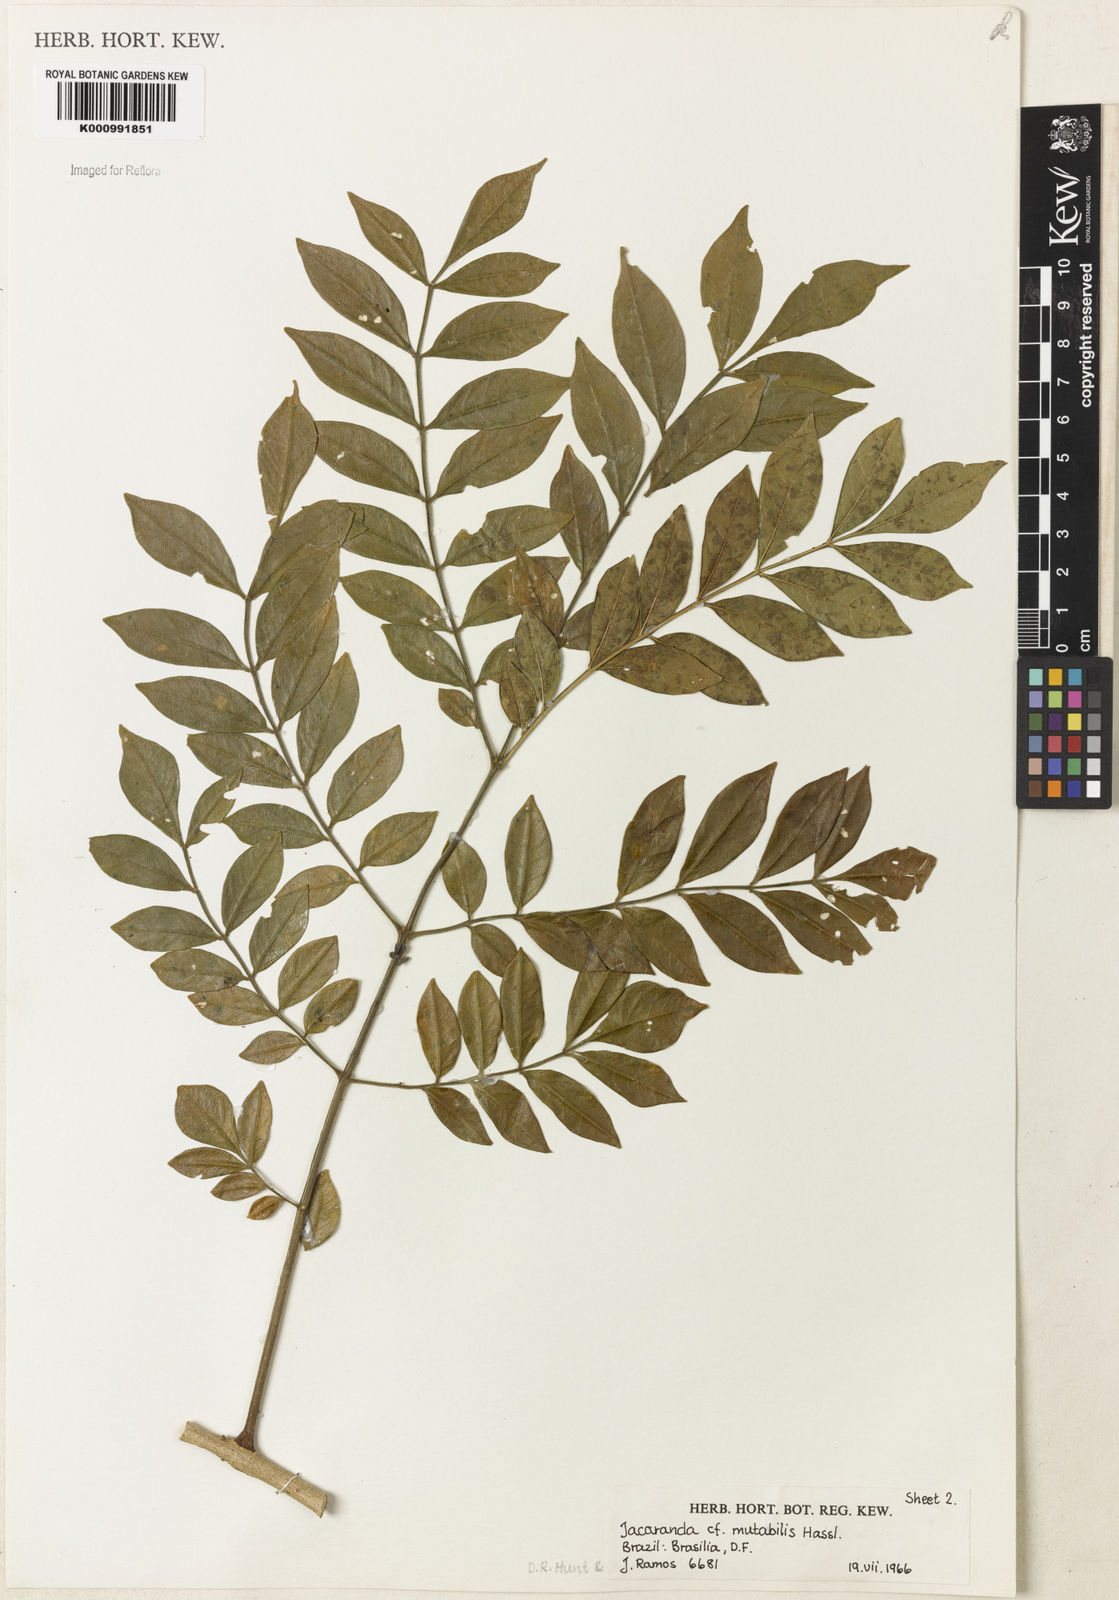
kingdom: Plantae
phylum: Tracheophyta
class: Magnoliopsida
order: Lamiales
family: Bignoniaceae
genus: Jacaranda
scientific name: Jacaranda mutabilis
